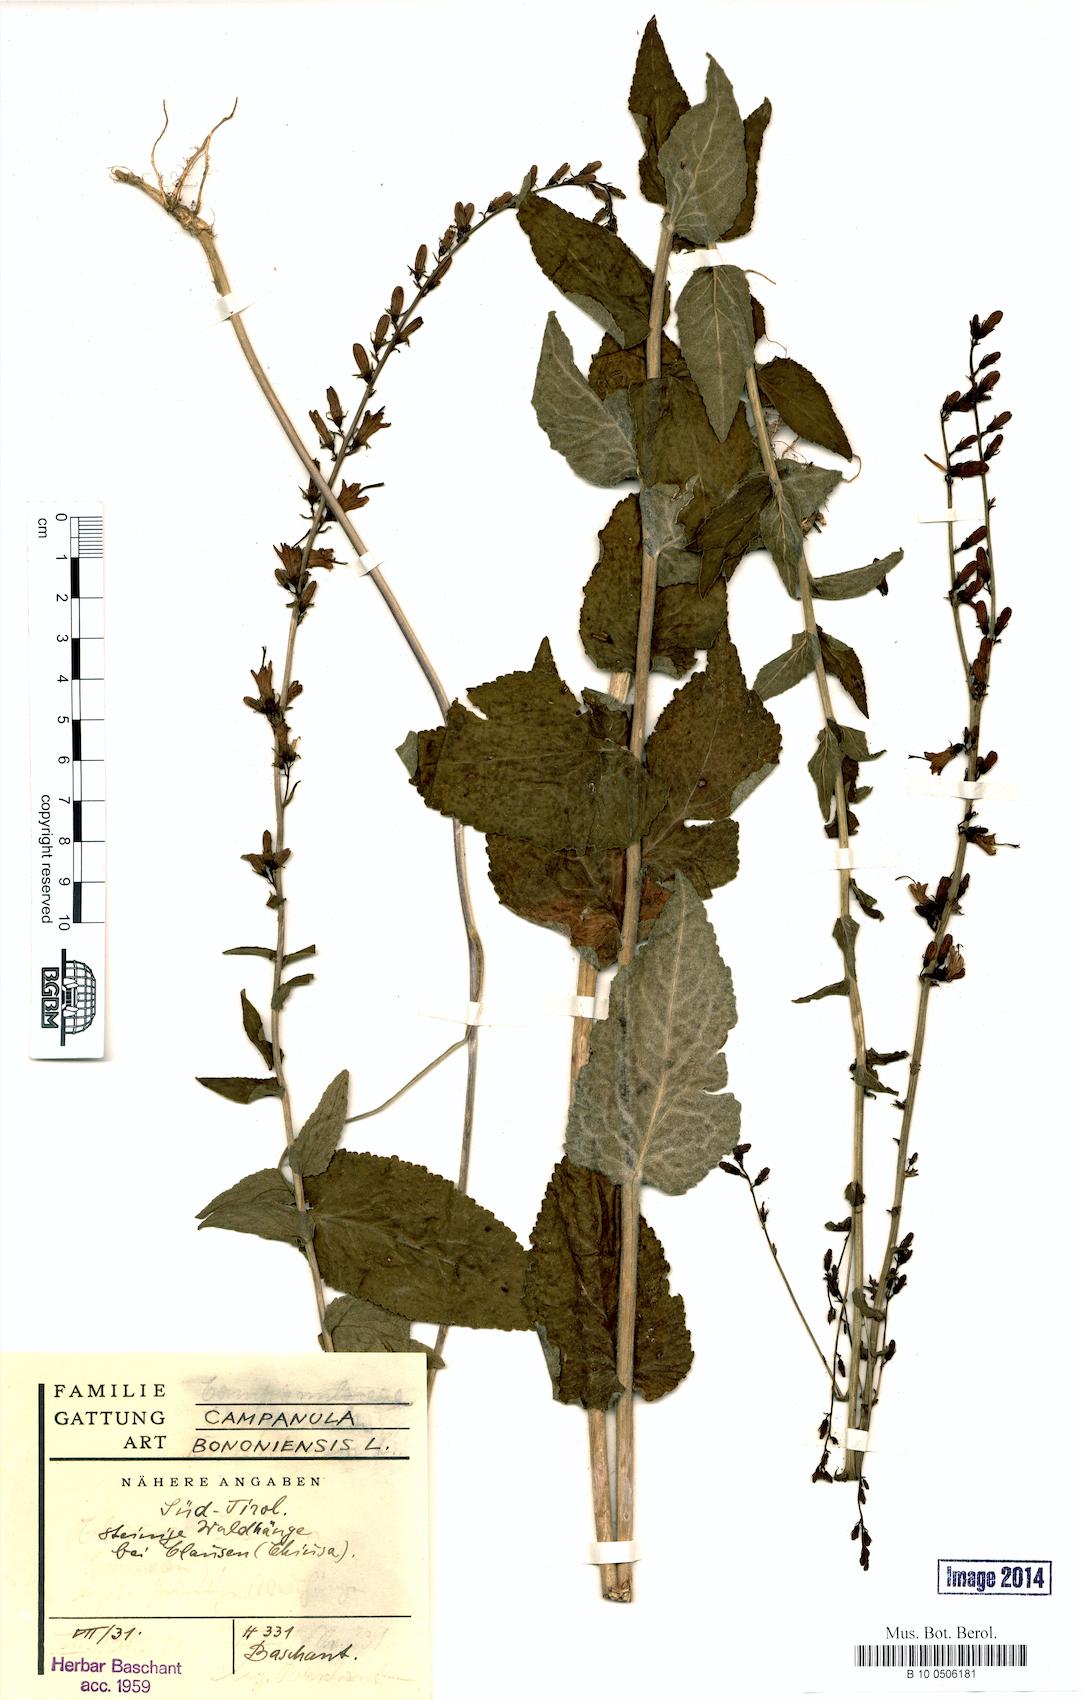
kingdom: Plantae
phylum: Tracheophyta
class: Magnoliopsida
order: Asterales
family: Campanulaceae
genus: Campanula
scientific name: Campanula bononiensis
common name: Pale bellflower
